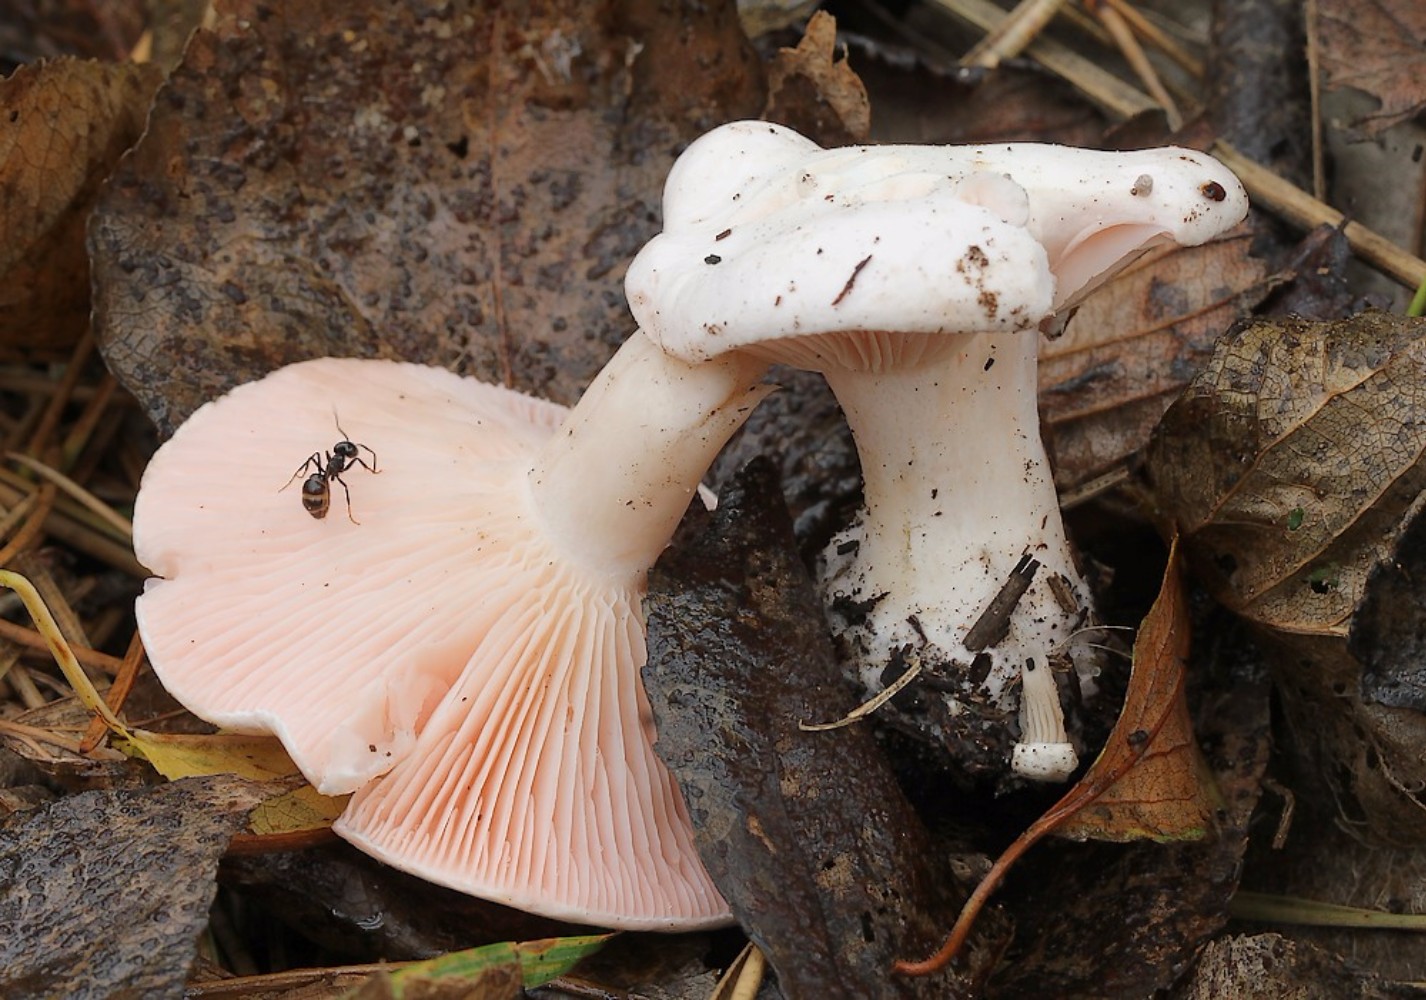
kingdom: Fungi
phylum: Basidiomycota
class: Agaricomycetes
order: Agaricales
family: Entolomataceae
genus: Clitopilus
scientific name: Clitopilus prunulus
